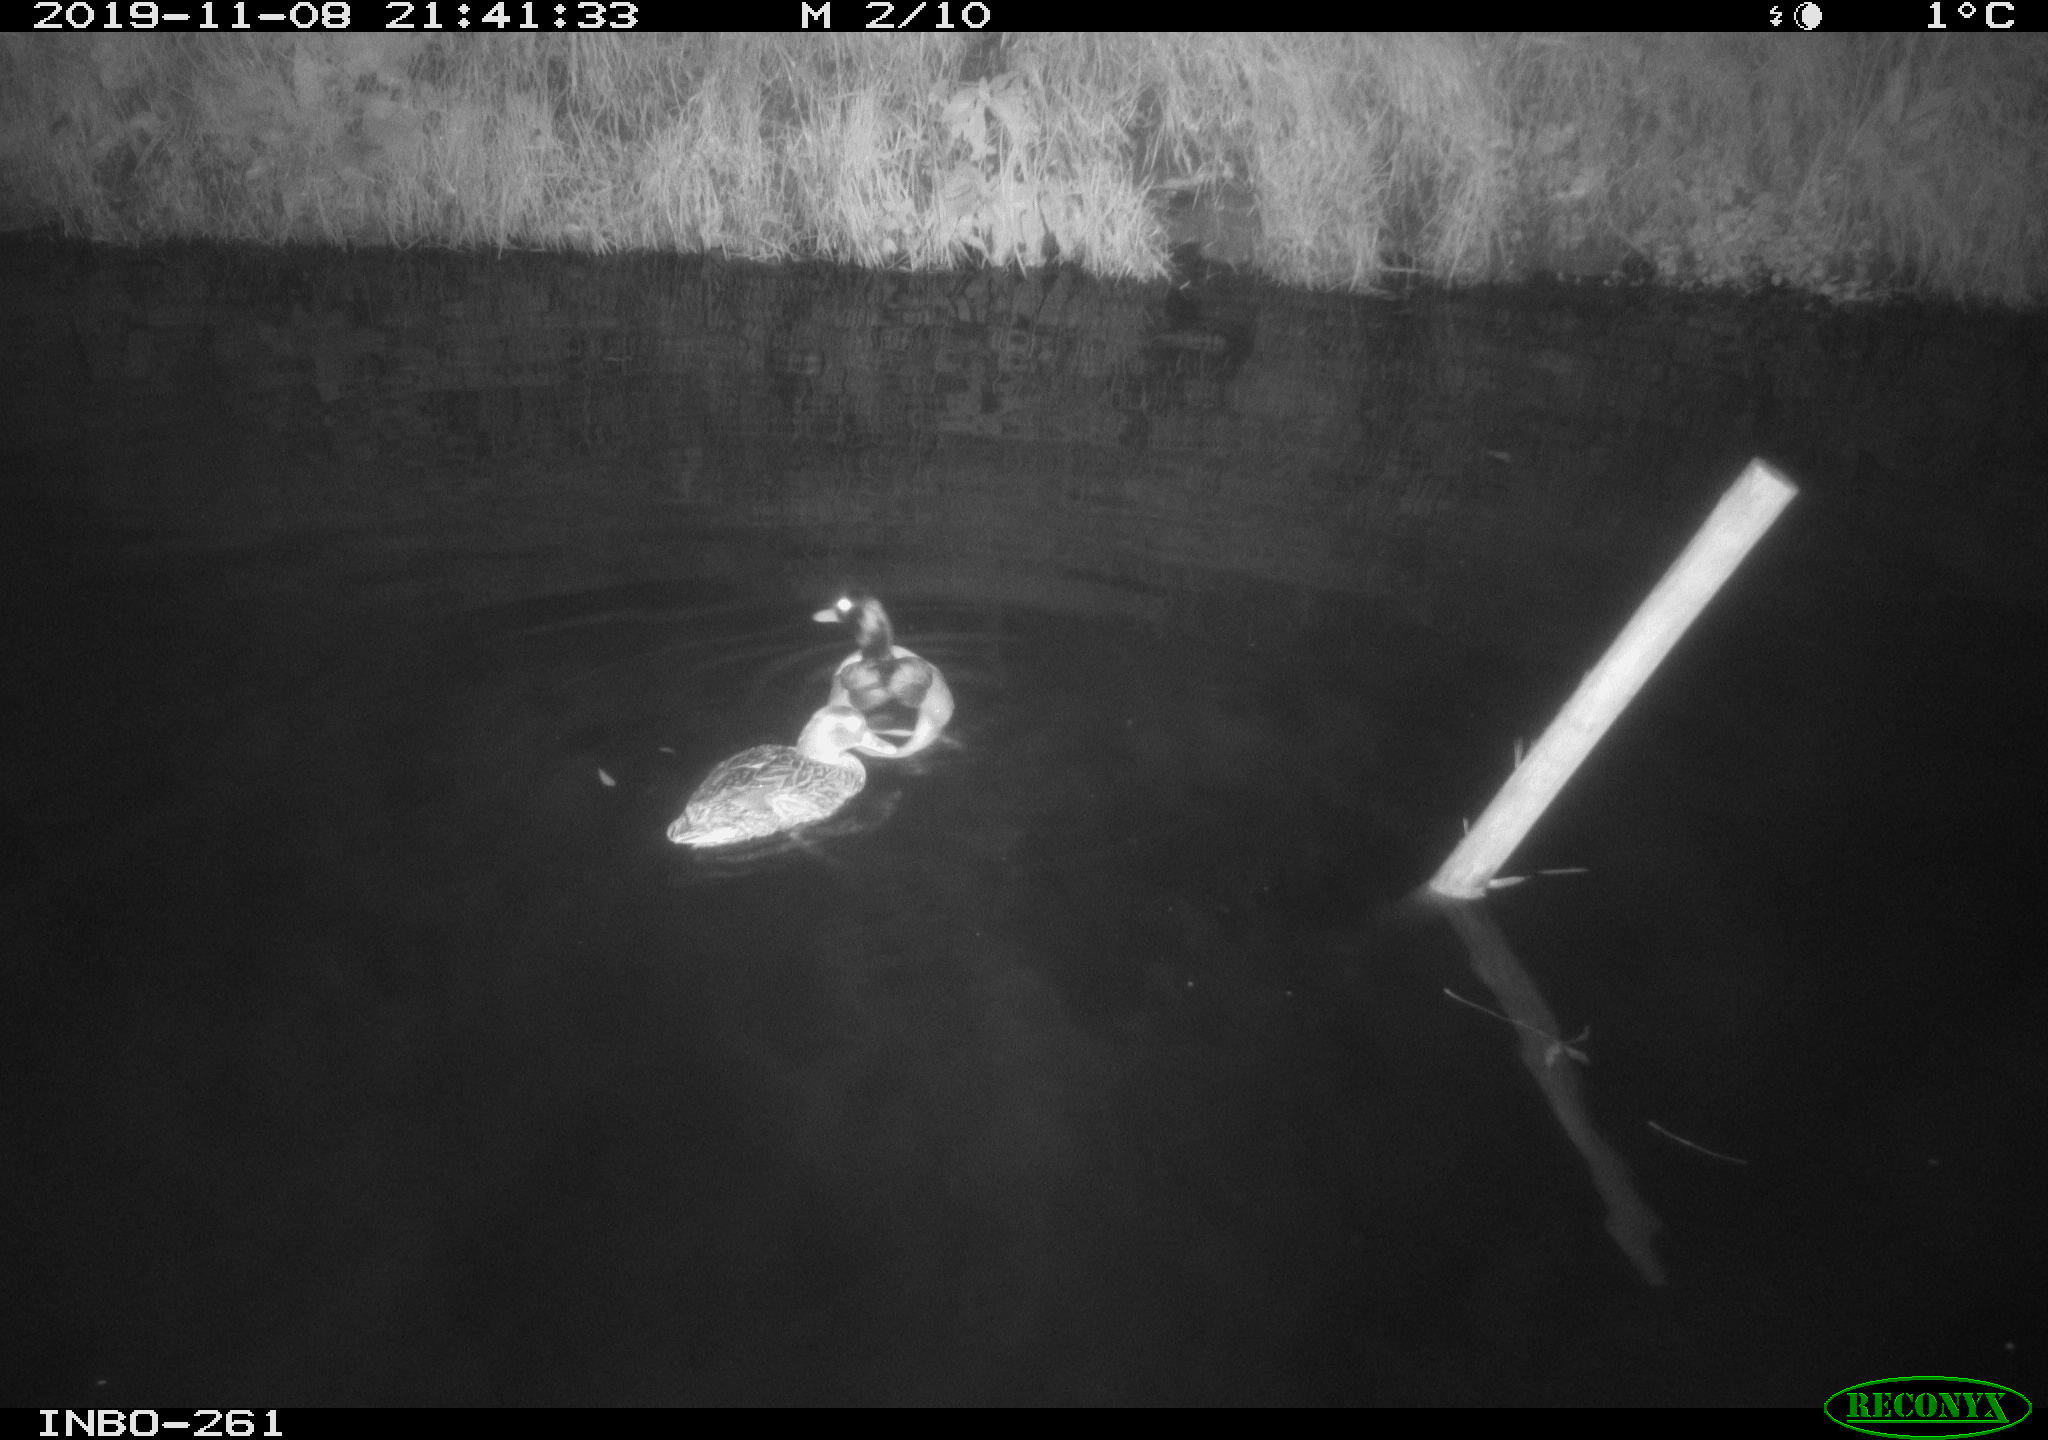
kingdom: Animalia
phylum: Chordata
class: Aves
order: Anseriformes
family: Anatidae
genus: Anas
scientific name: Anas platyrhynchos
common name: Mallard
